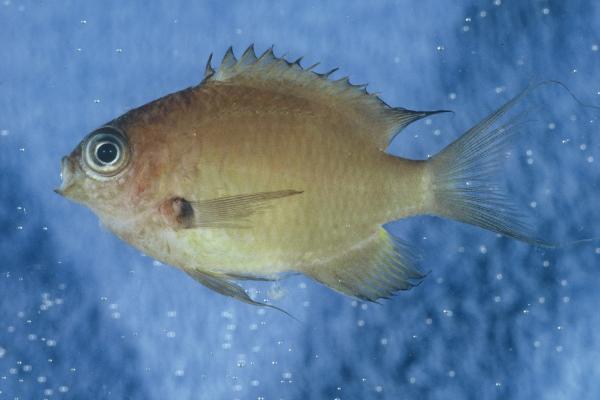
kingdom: Animalia
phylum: Chordata
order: Perciformes
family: Pomacentridae
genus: Chromis
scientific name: Chromis agilis
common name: Bronze reef chromis
